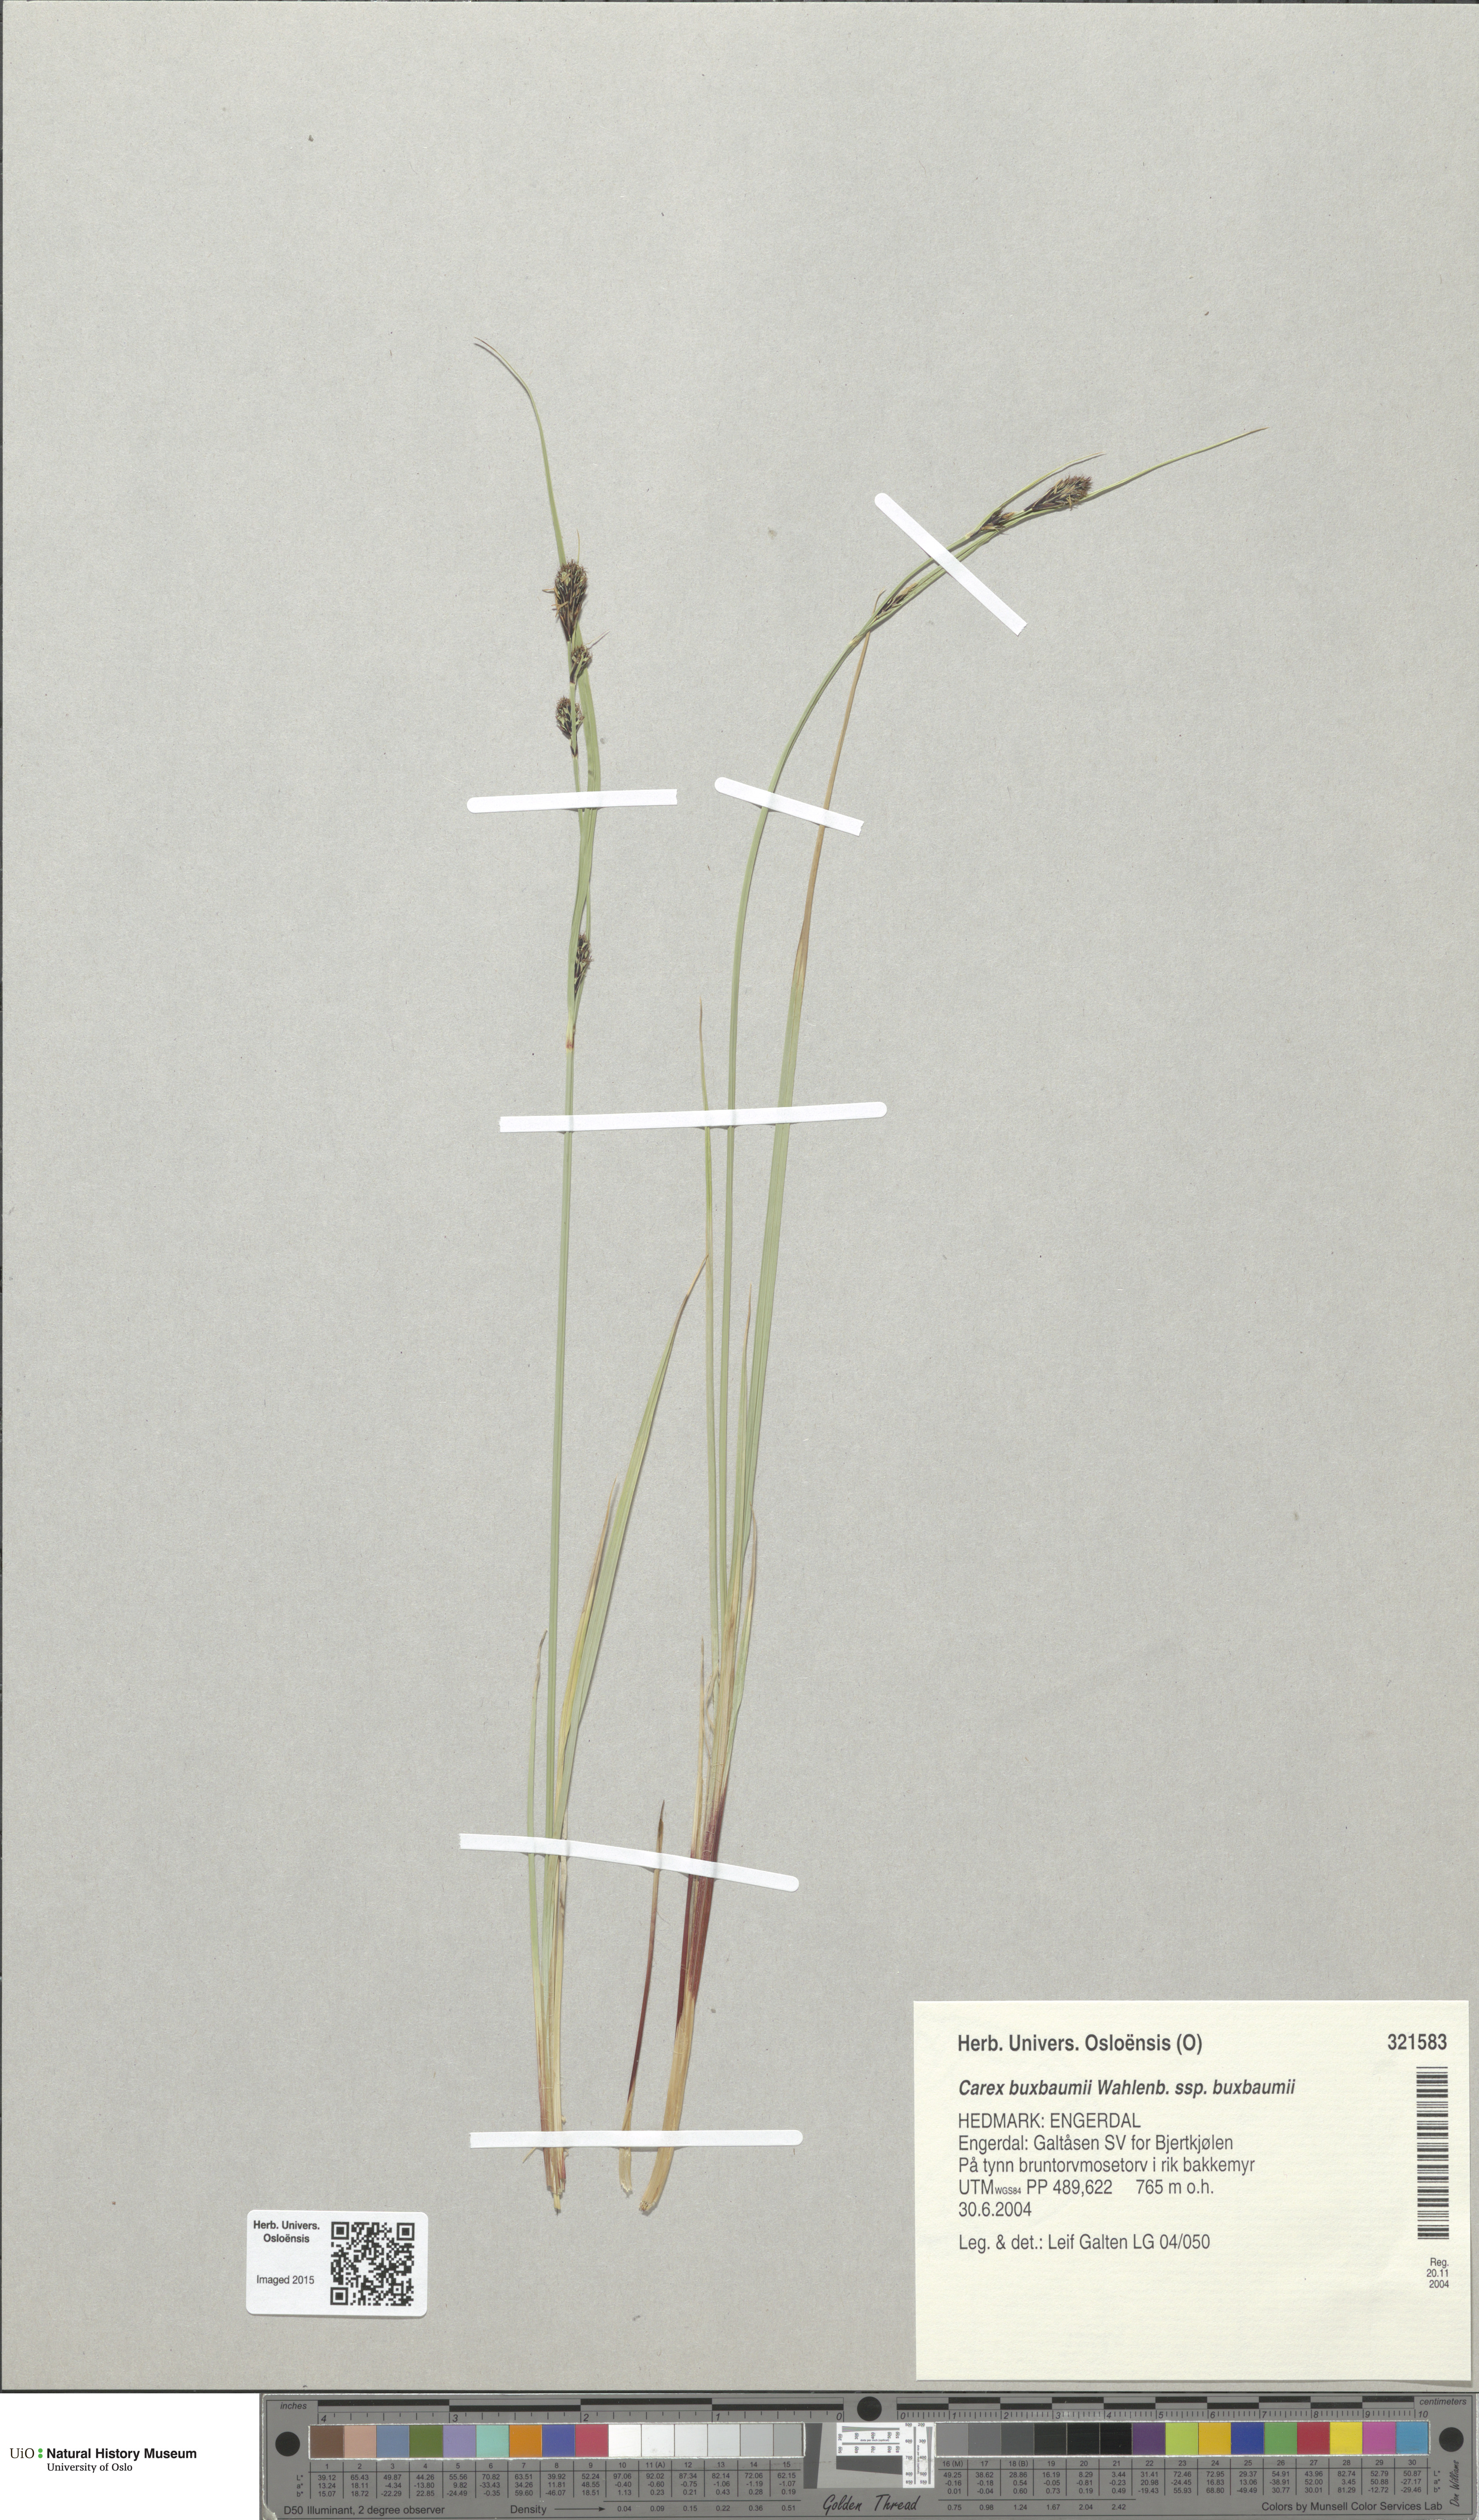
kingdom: Plantae
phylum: Tracheophyta
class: Liliopsida
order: Poales
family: Cyperaceae
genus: Carex
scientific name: Carex buxbaumii
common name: Club sedge
